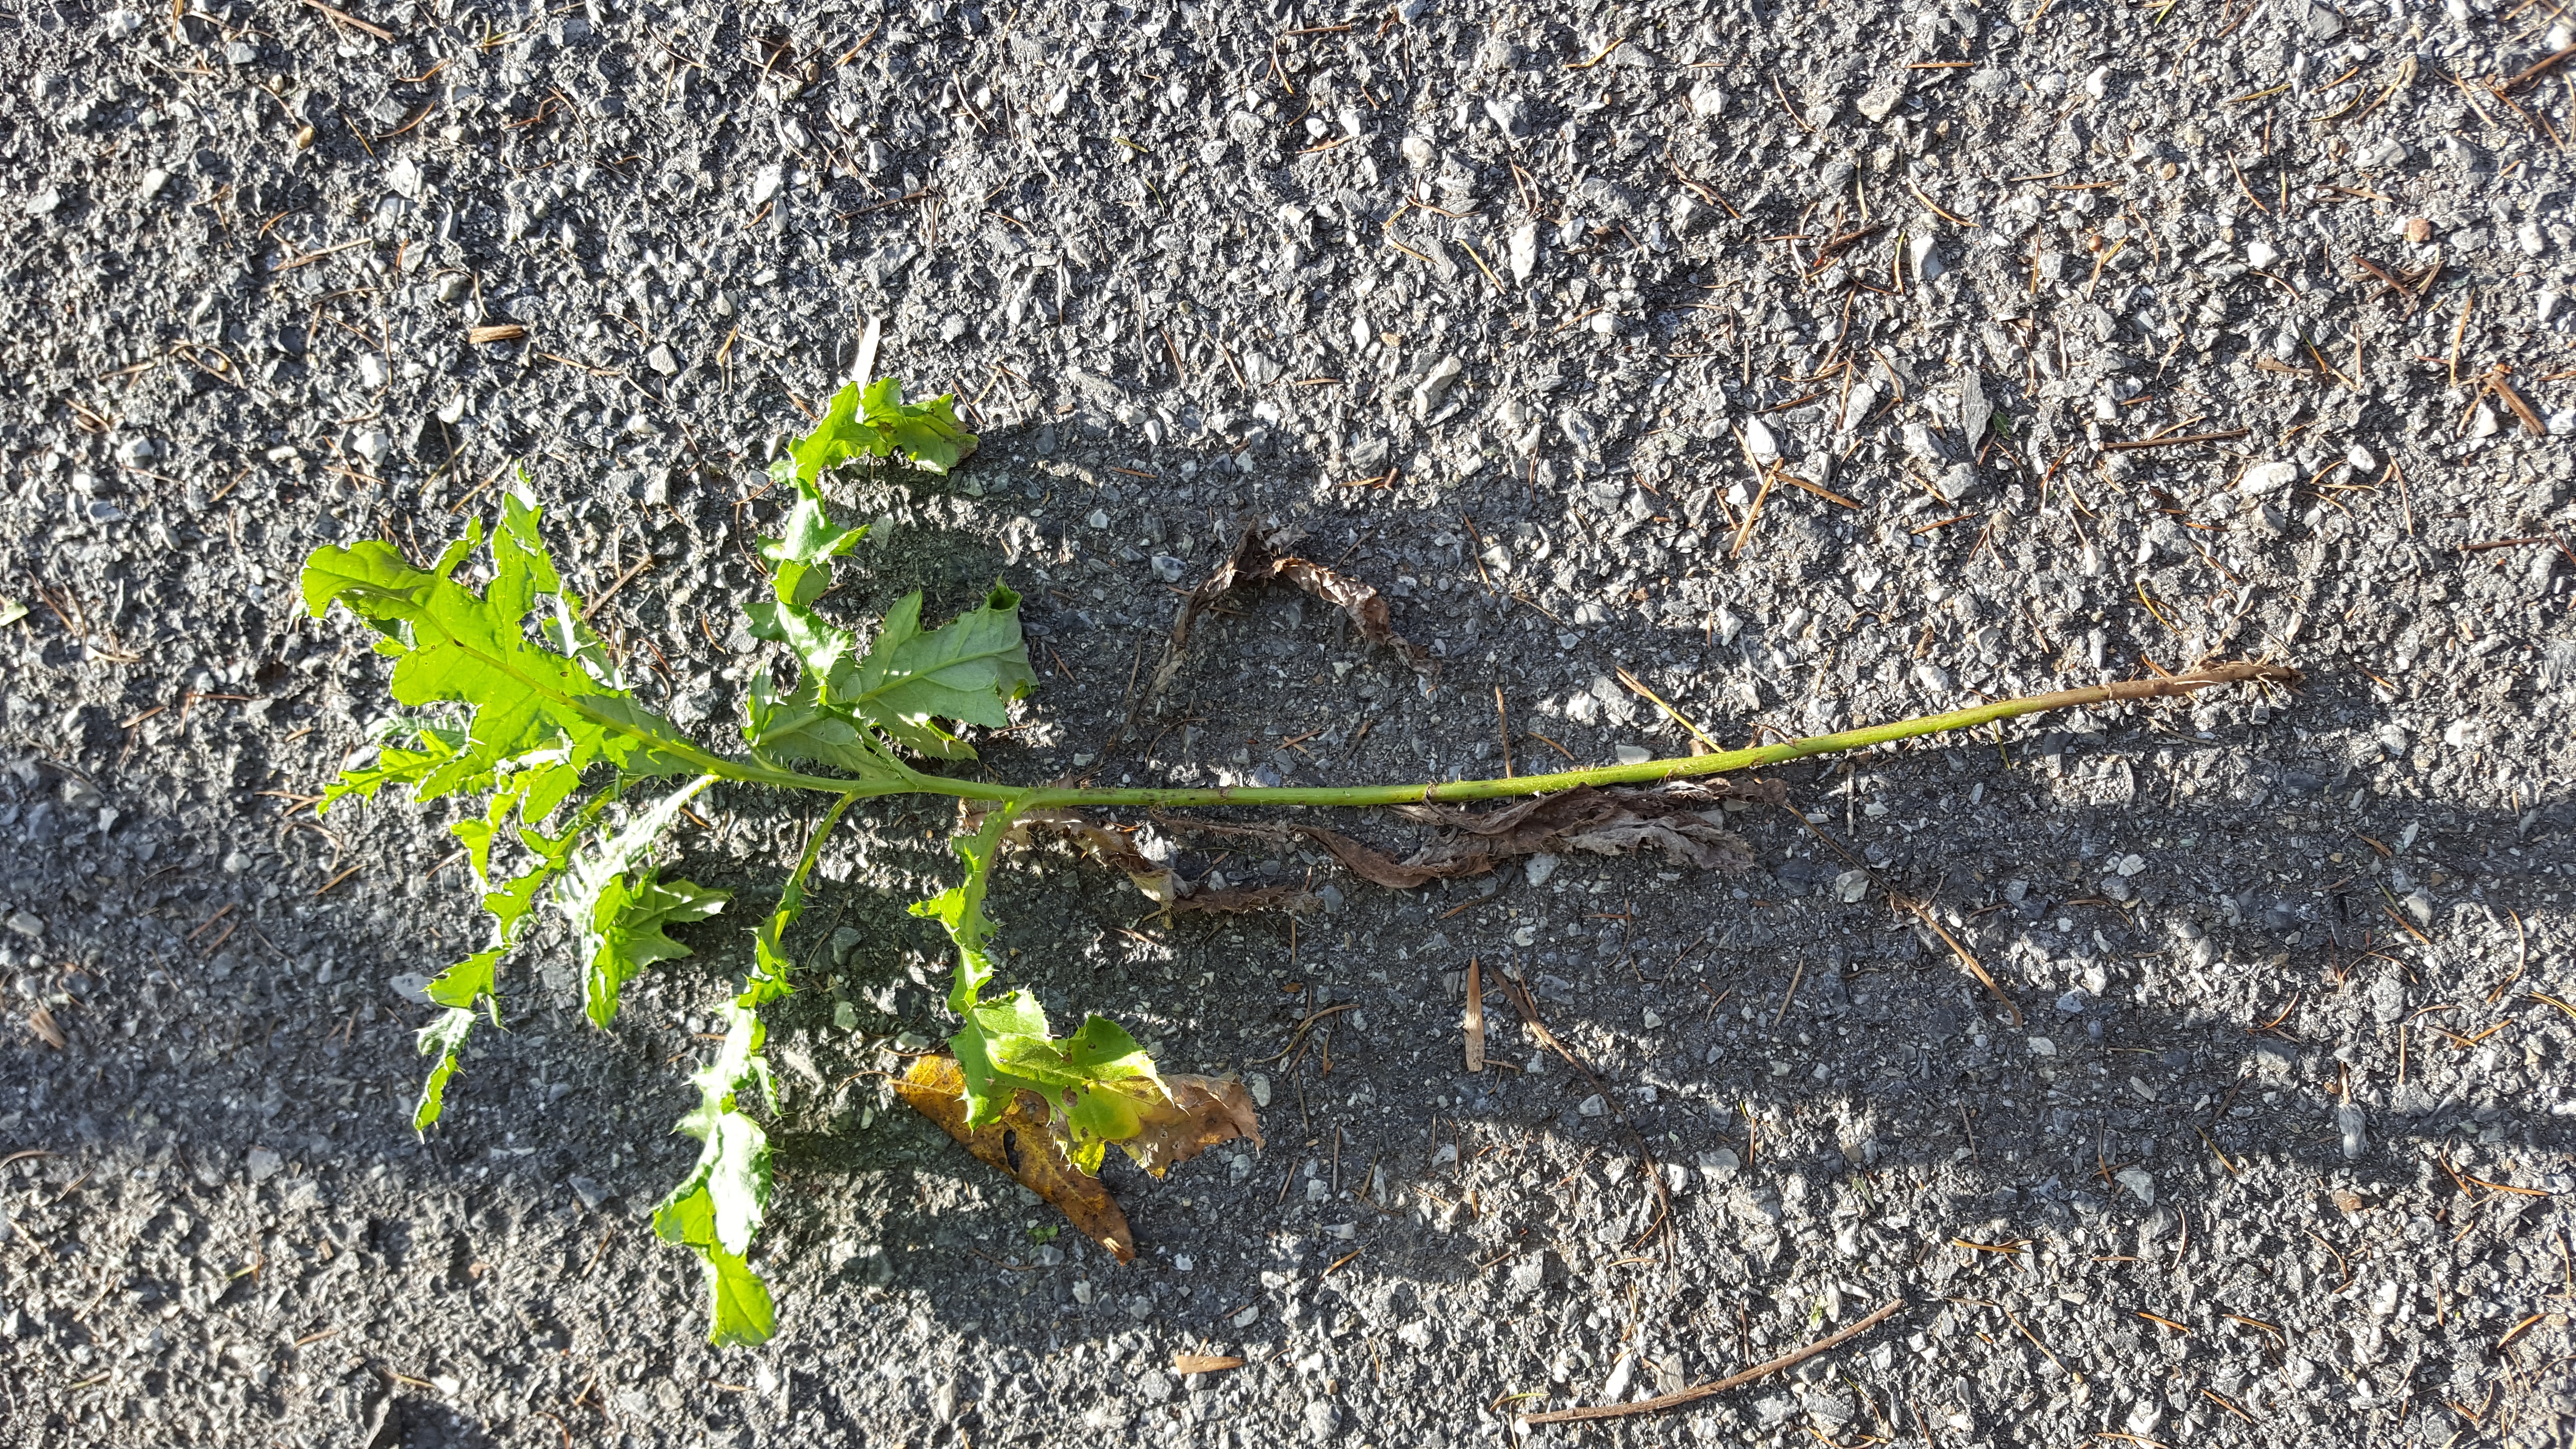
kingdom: Plantae
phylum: Tracheophyta
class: Magnoliopsida
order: Asterales
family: Asteraceae
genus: Cirsium
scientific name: Cirsium arvense
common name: Canadian Thistle
